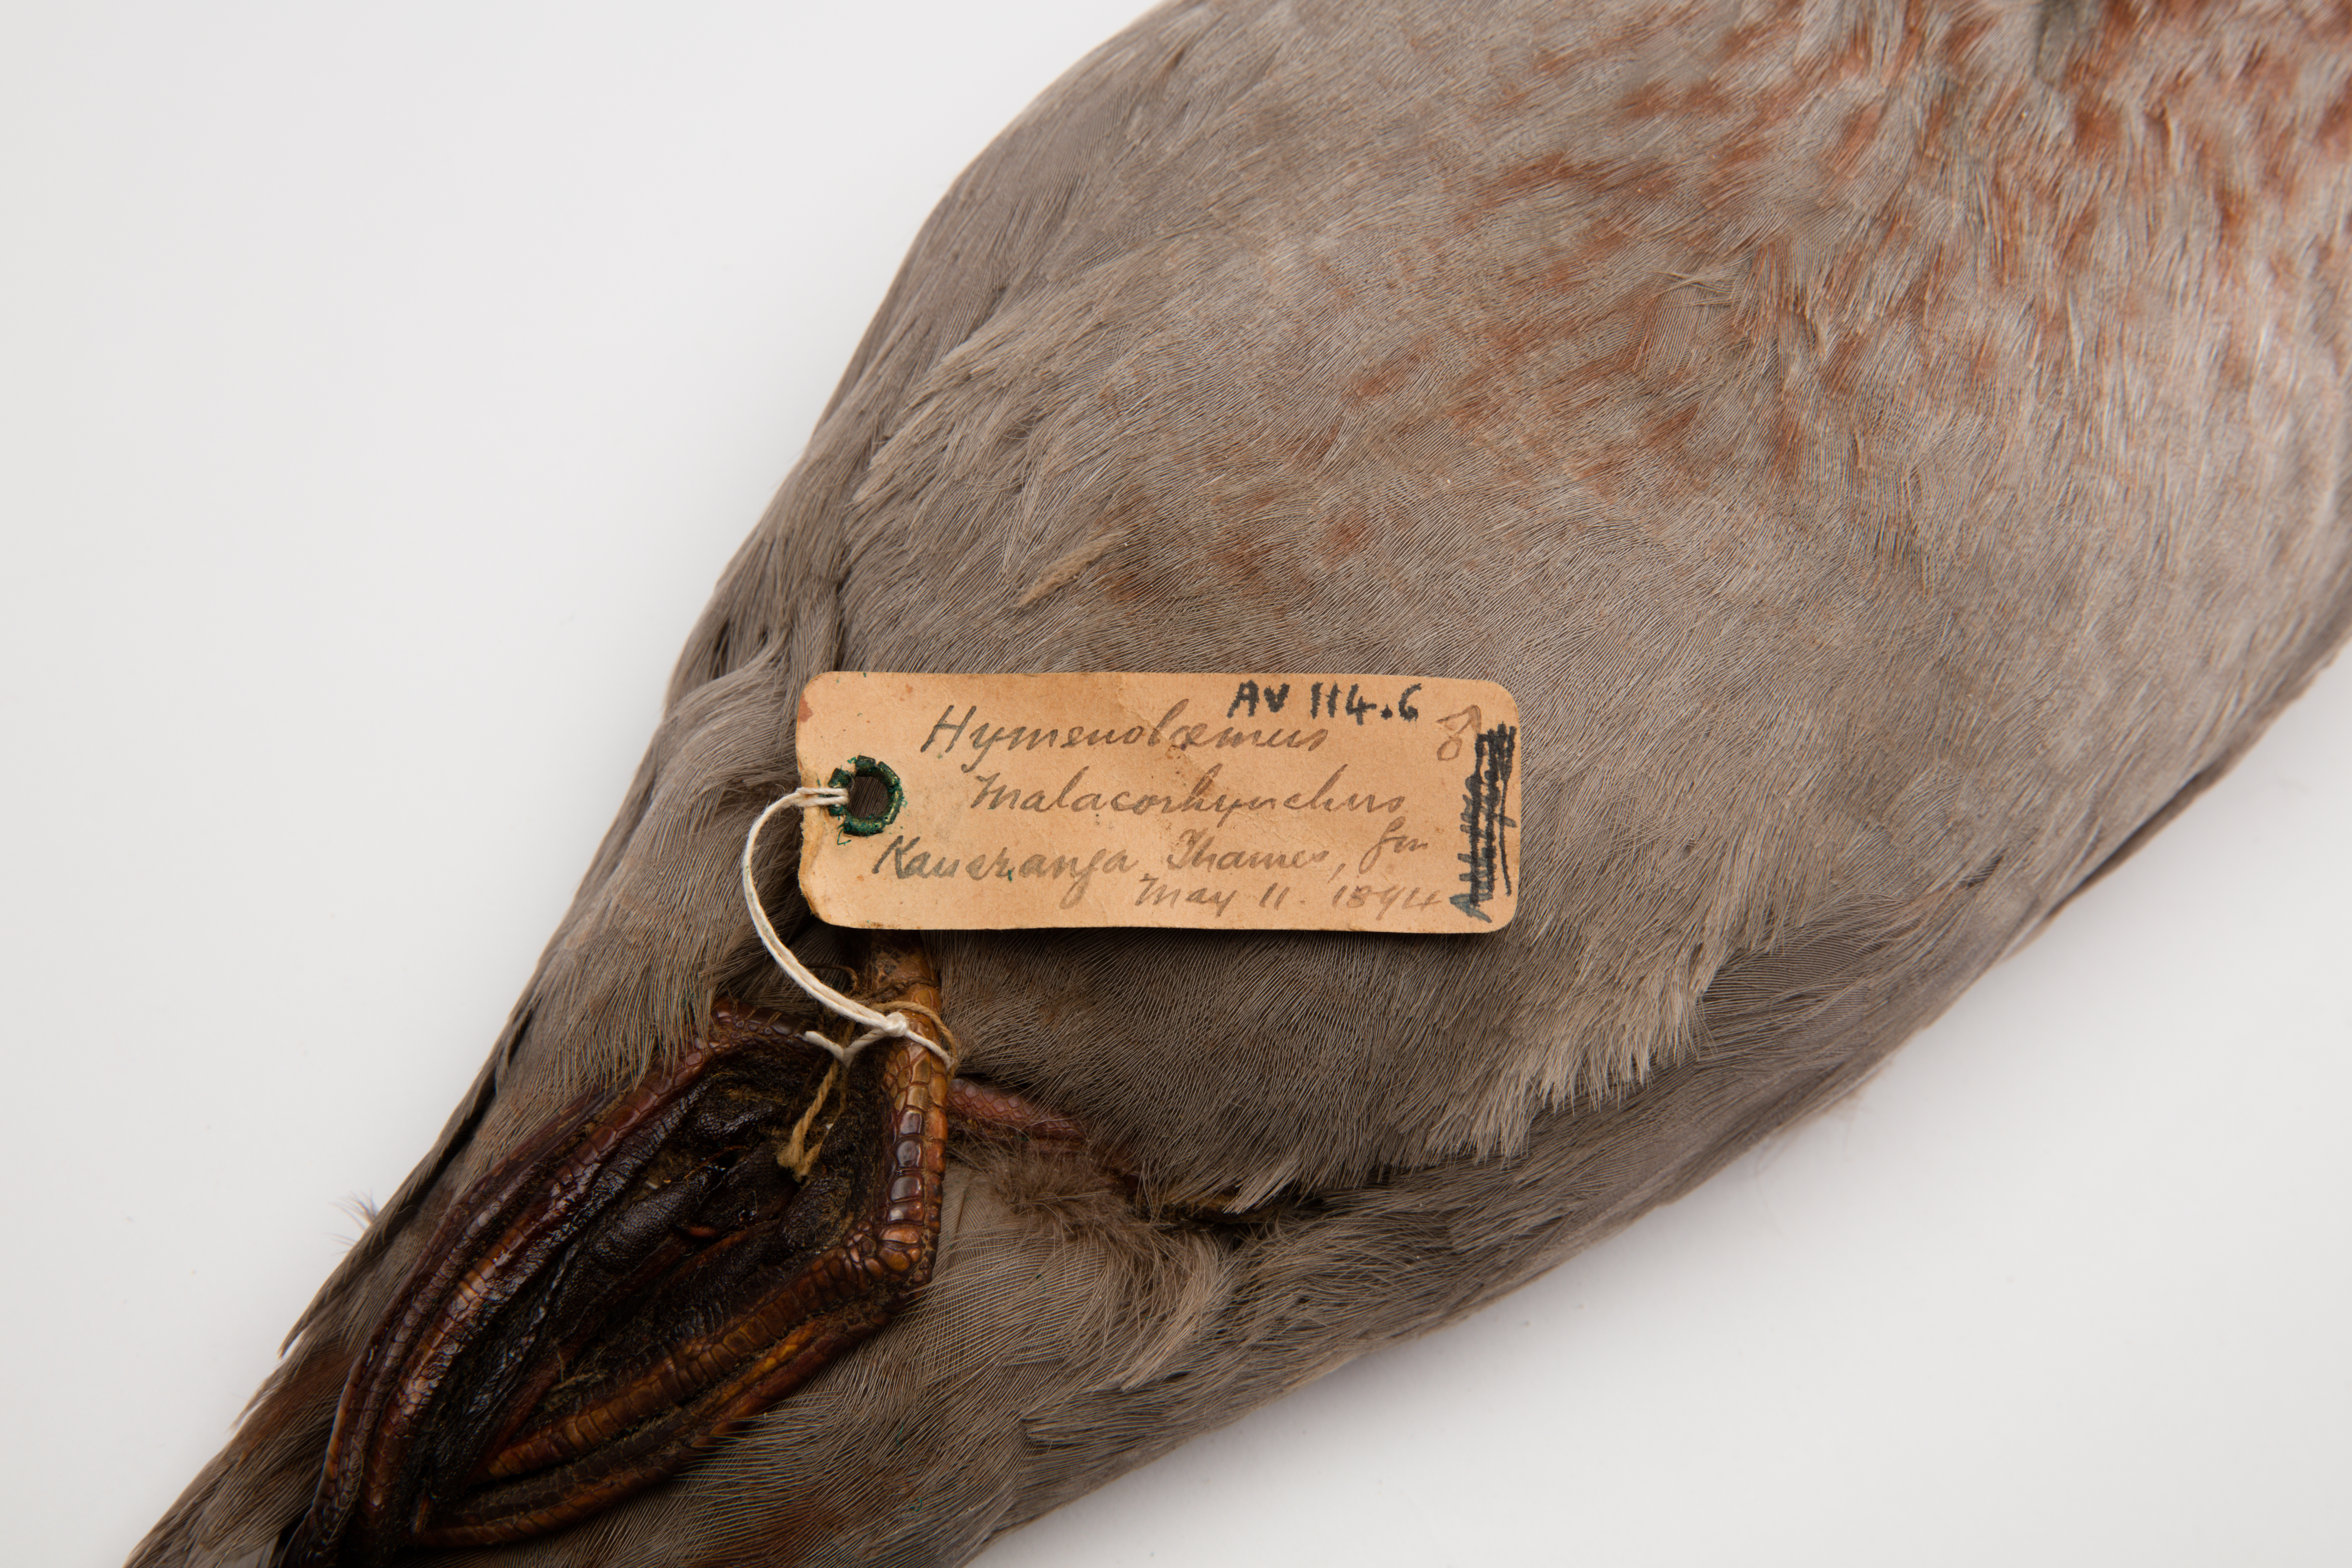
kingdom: Animalia
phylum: Chordata
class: Aves
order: Anseriformes
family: Anatidae
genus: Hymenolaimus
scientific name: Hymenolaimus malacorhynchos
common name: Blue duck
